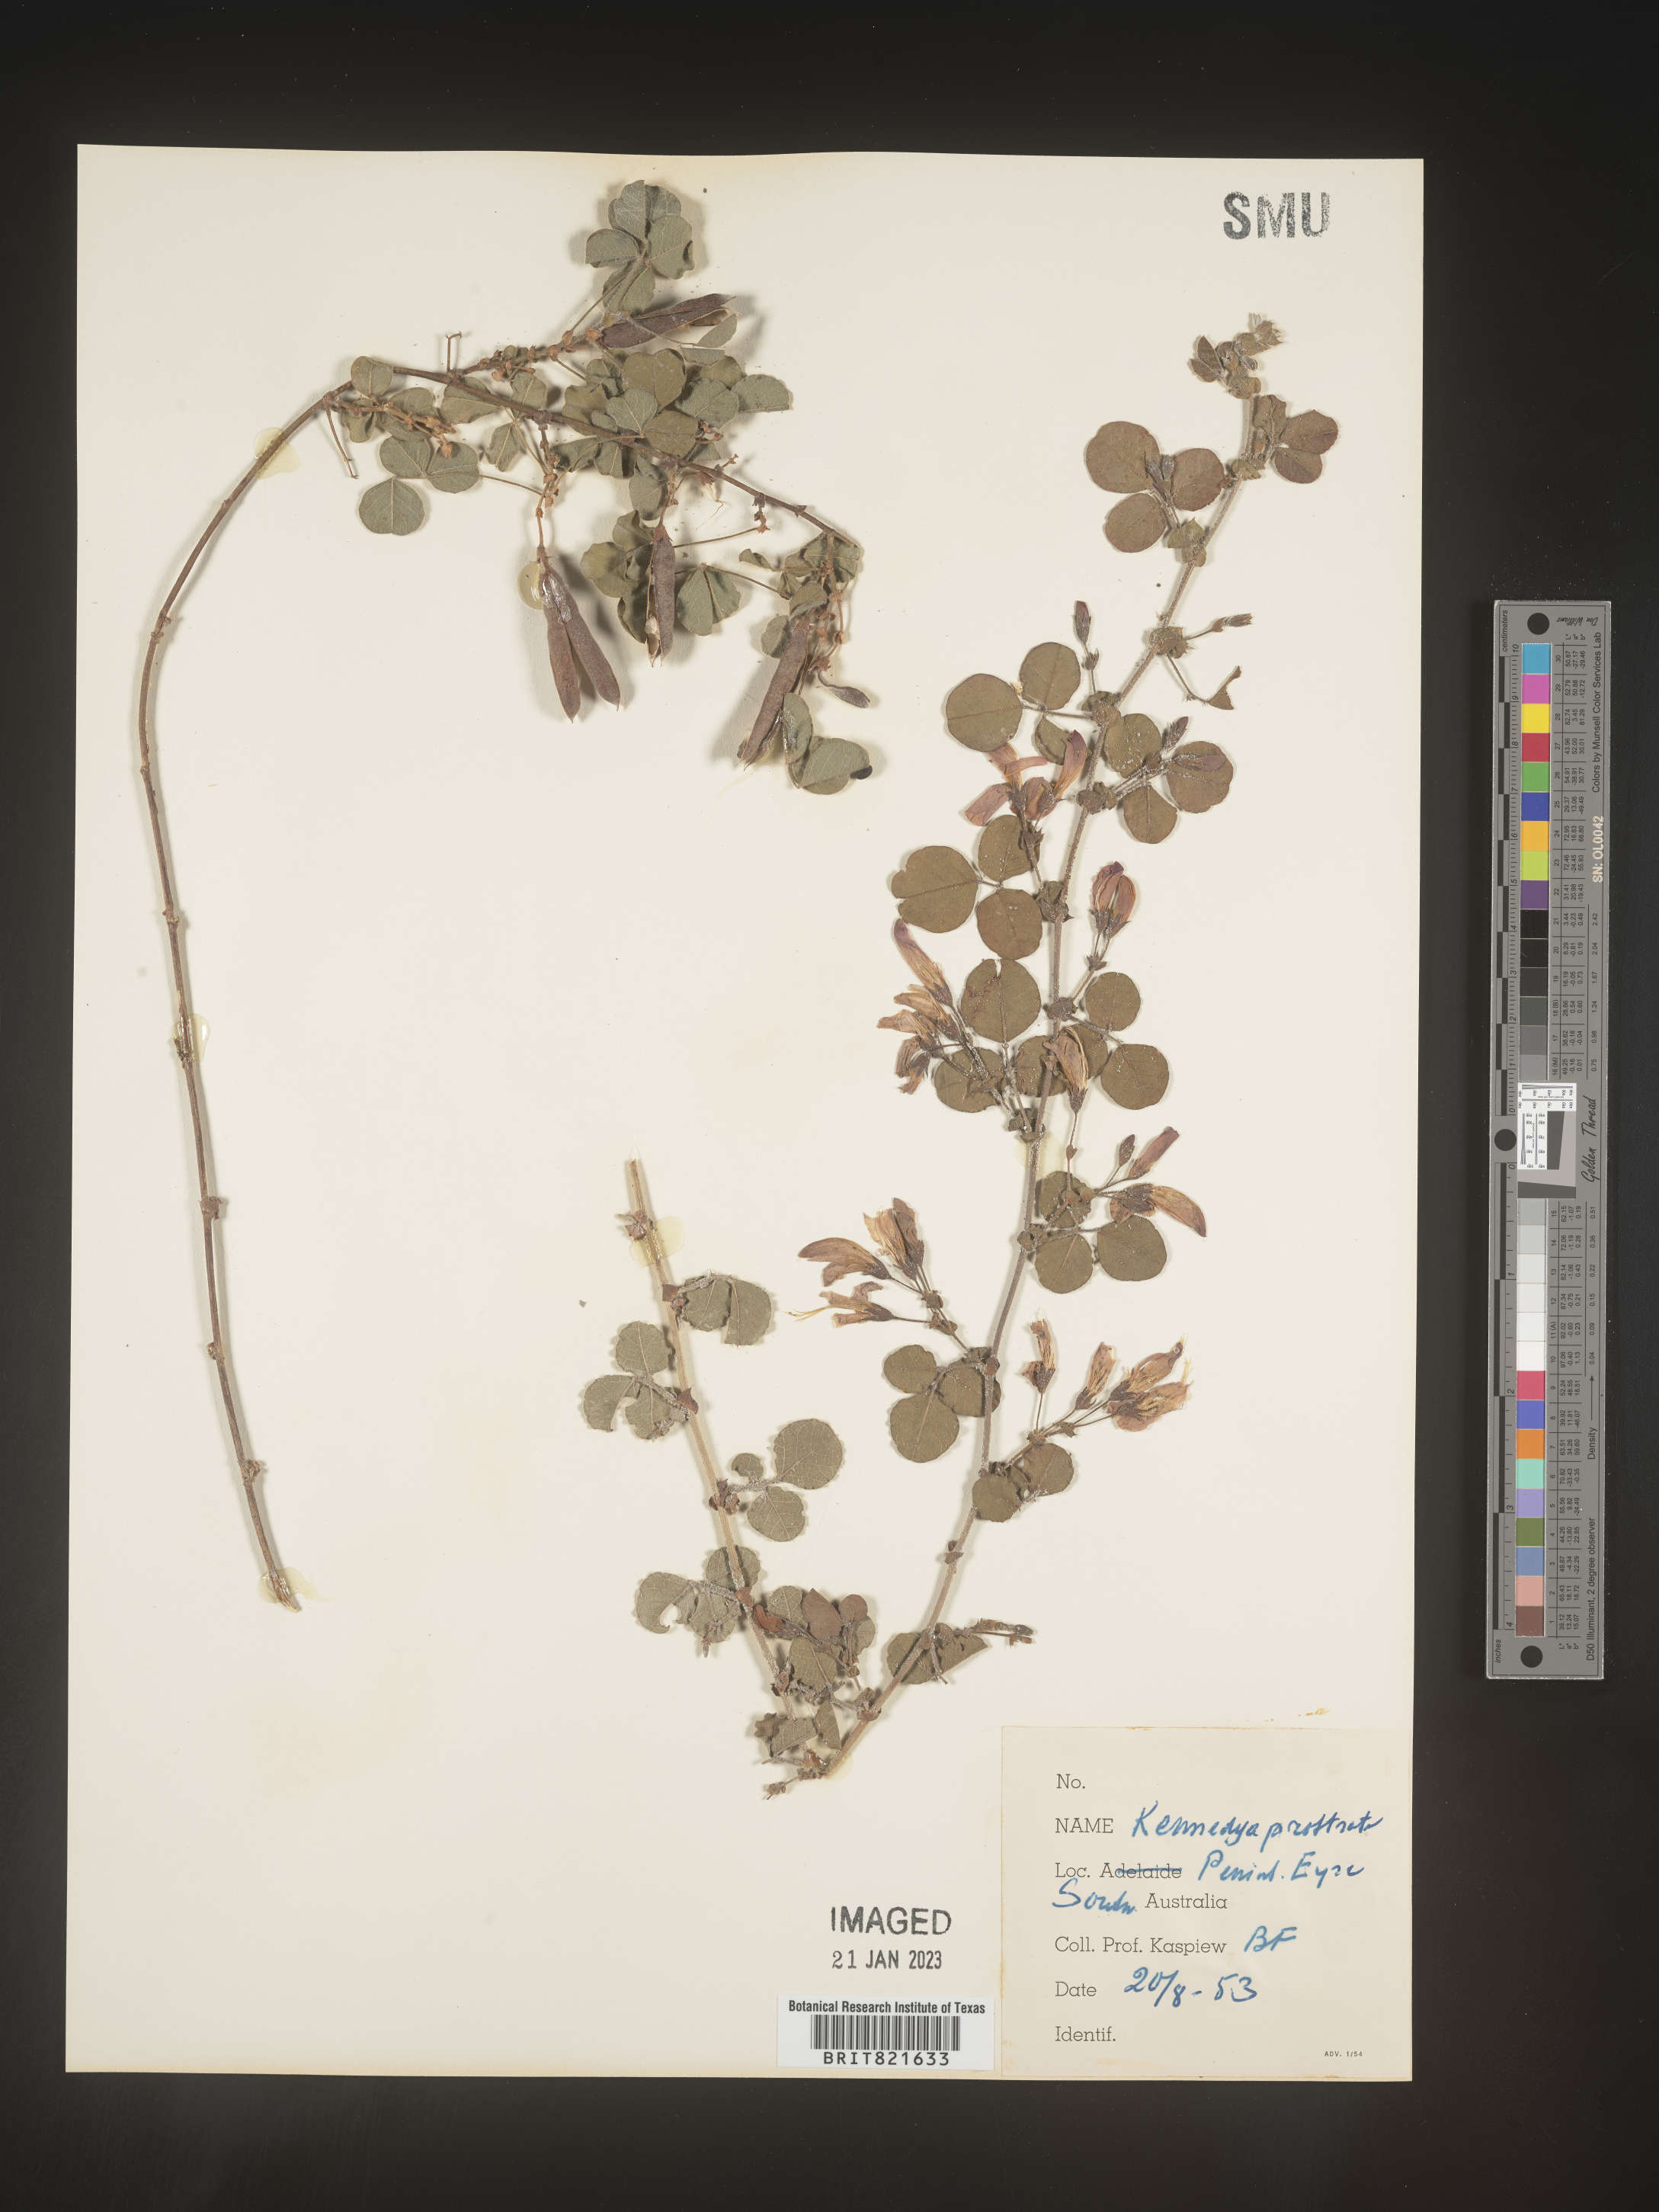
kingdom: Plantae
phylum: Tracheophyta
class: Magnoliopsida
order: Fabales
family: Fabaceae
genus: Kennedya
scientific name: Kennedya
